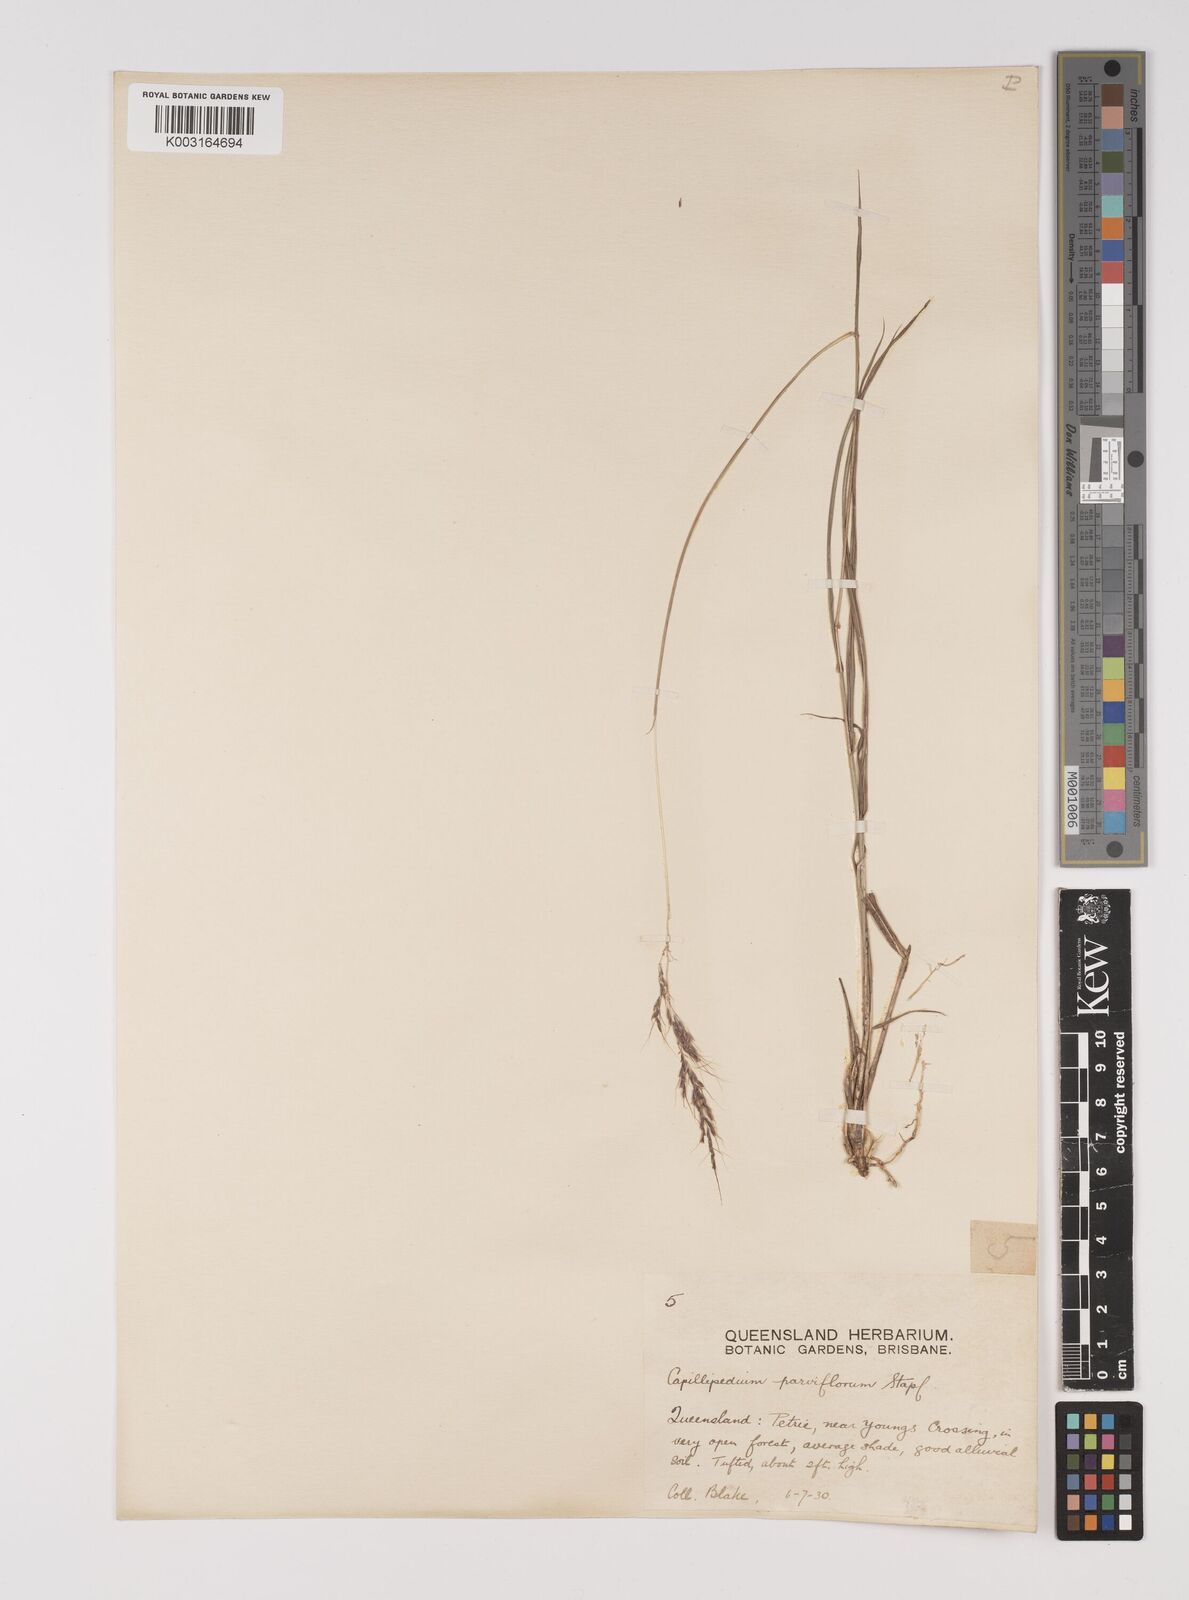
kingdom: Plantae
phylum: Tracheophyta
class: Liliopsida
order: Poales
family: Poaceae
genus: Capillipedium
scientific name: Capillipedium parviflorum
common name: Golden-beard
